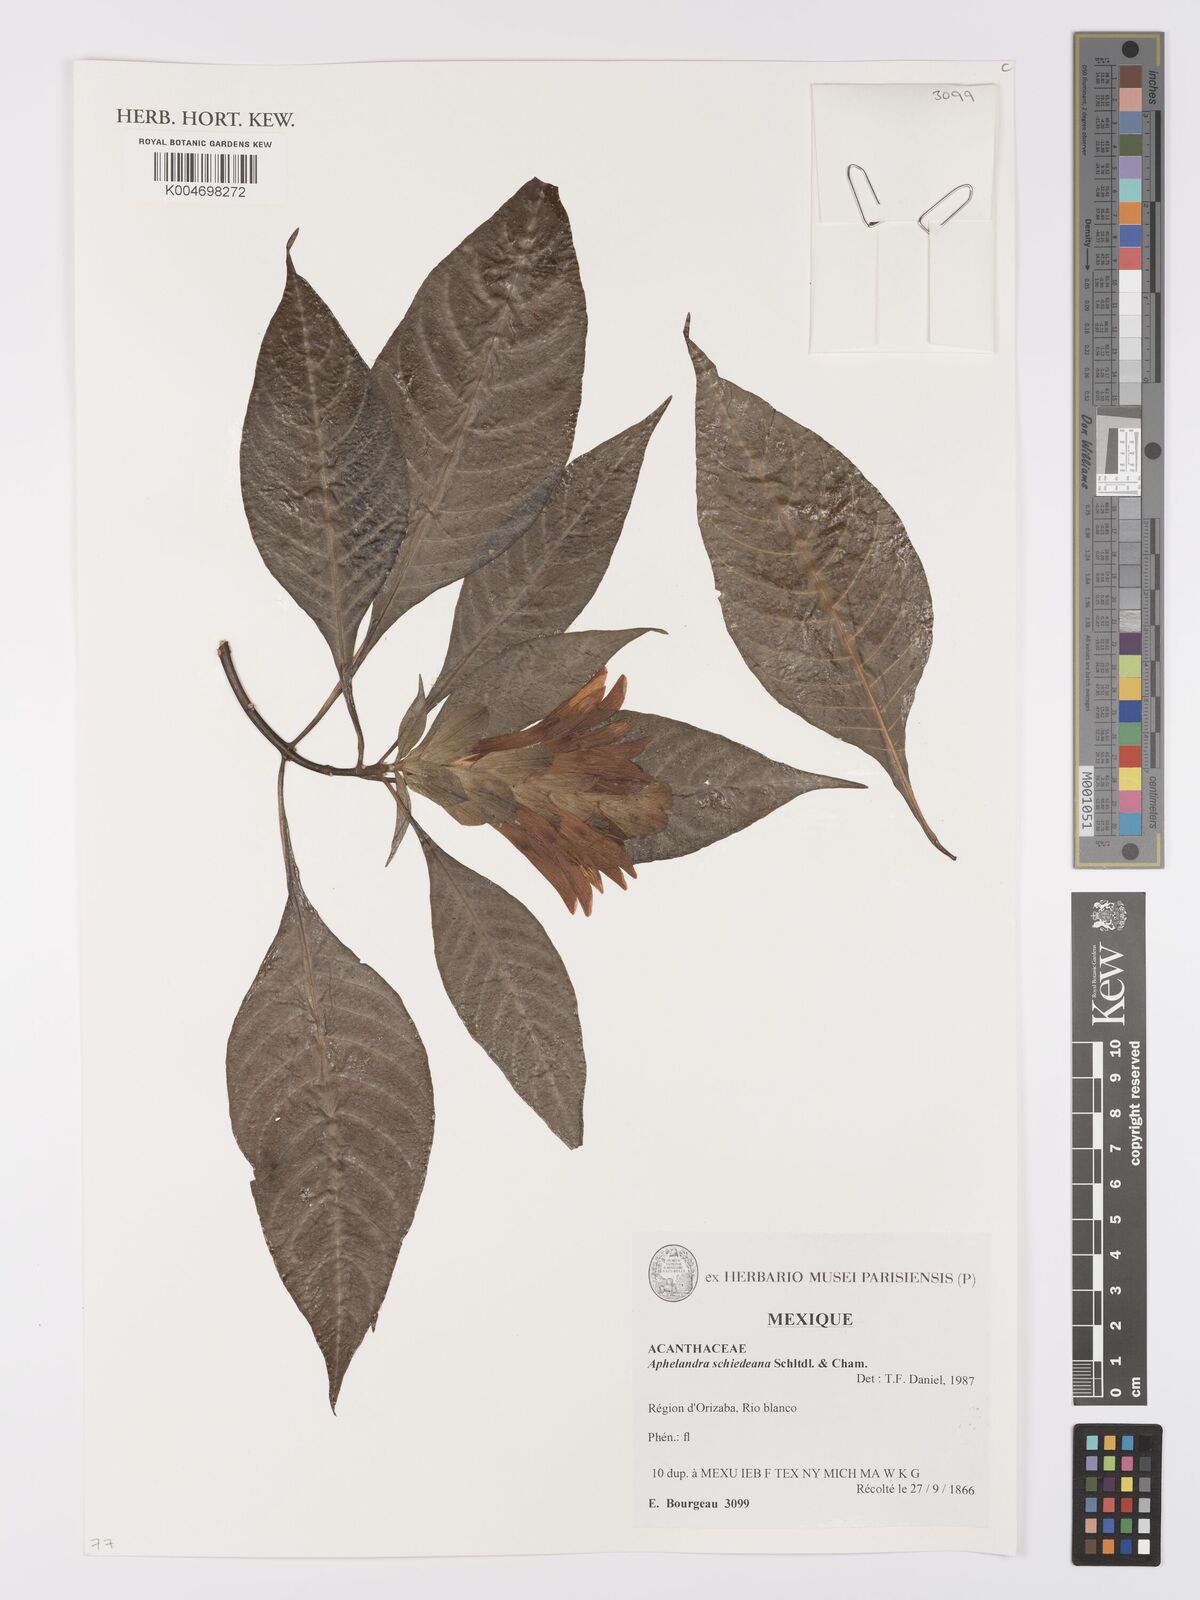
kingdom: Plantae
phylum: Tracheophyta
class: Magnoliopsida
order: Lamiales
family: Acanthaceae
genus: Aphelandra
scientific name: Aphelandra schiedeana
